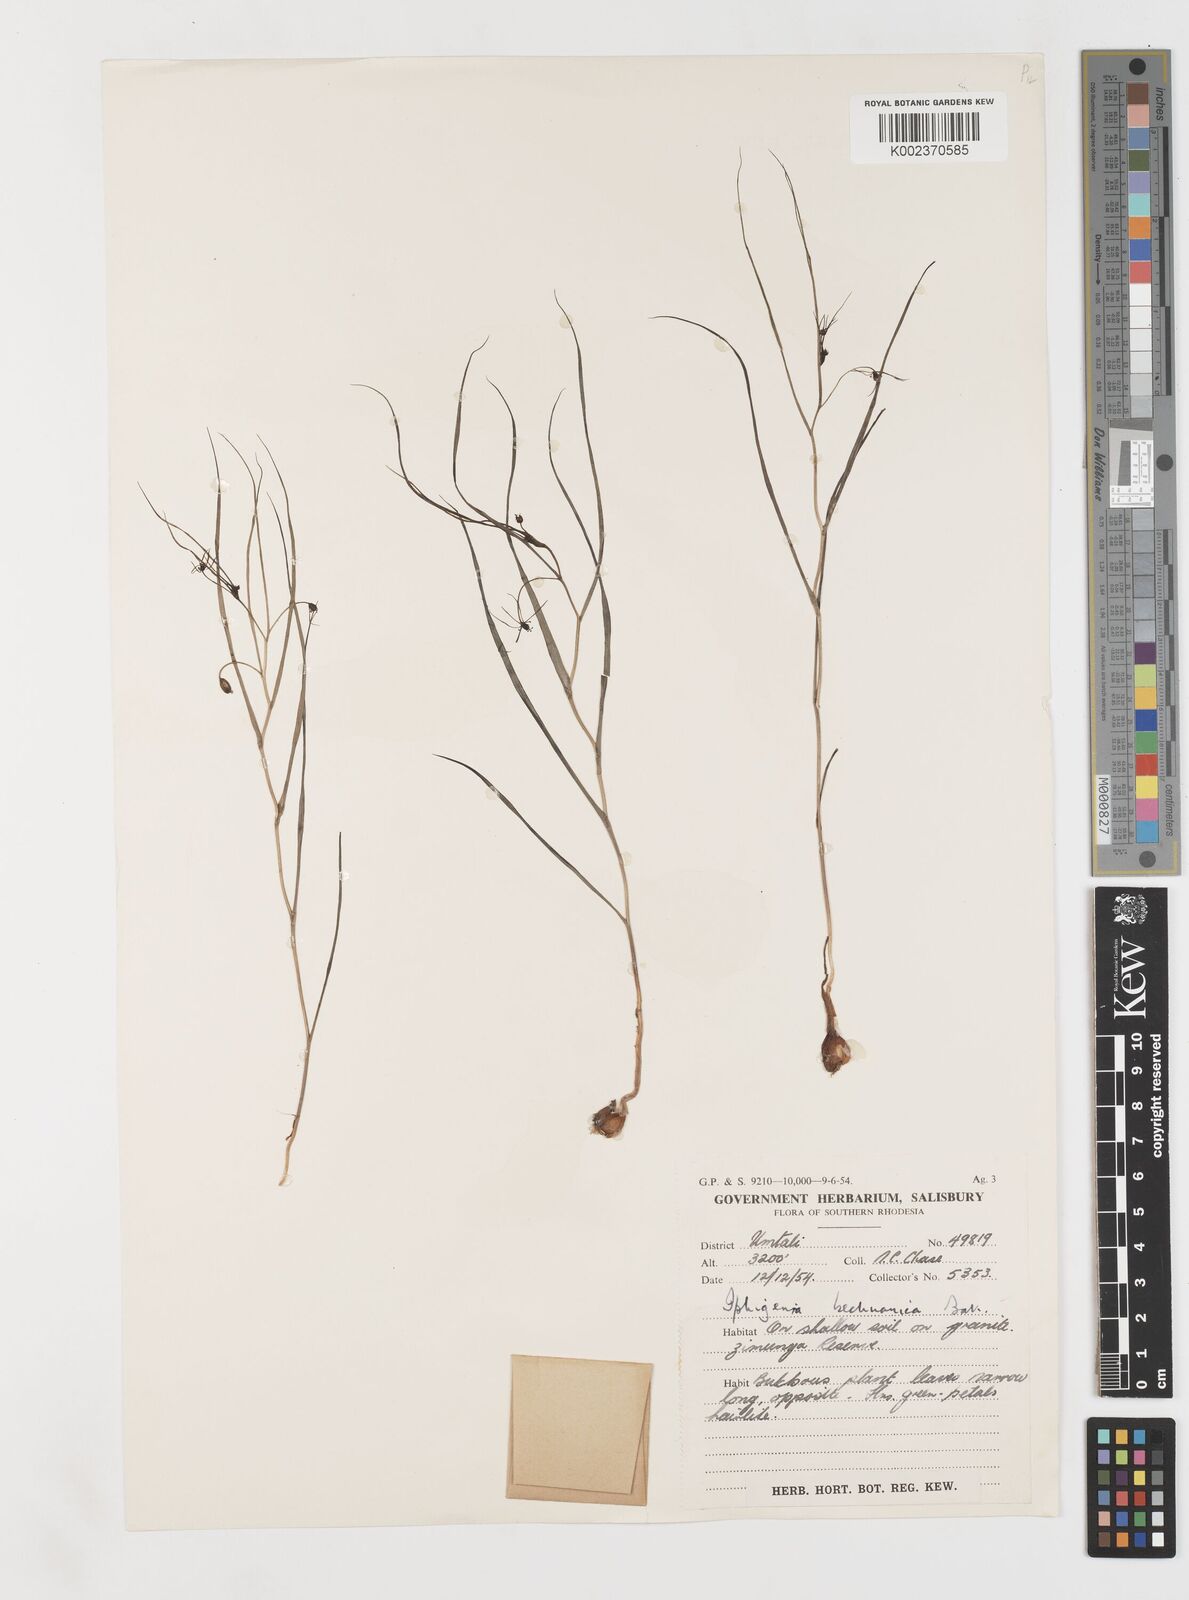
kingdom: Plantae
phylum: Tracheophyta
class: Liliopsida
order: Liliales
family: Colchicaceae
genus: Iphigenia
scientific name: Iphigenia oliveri
